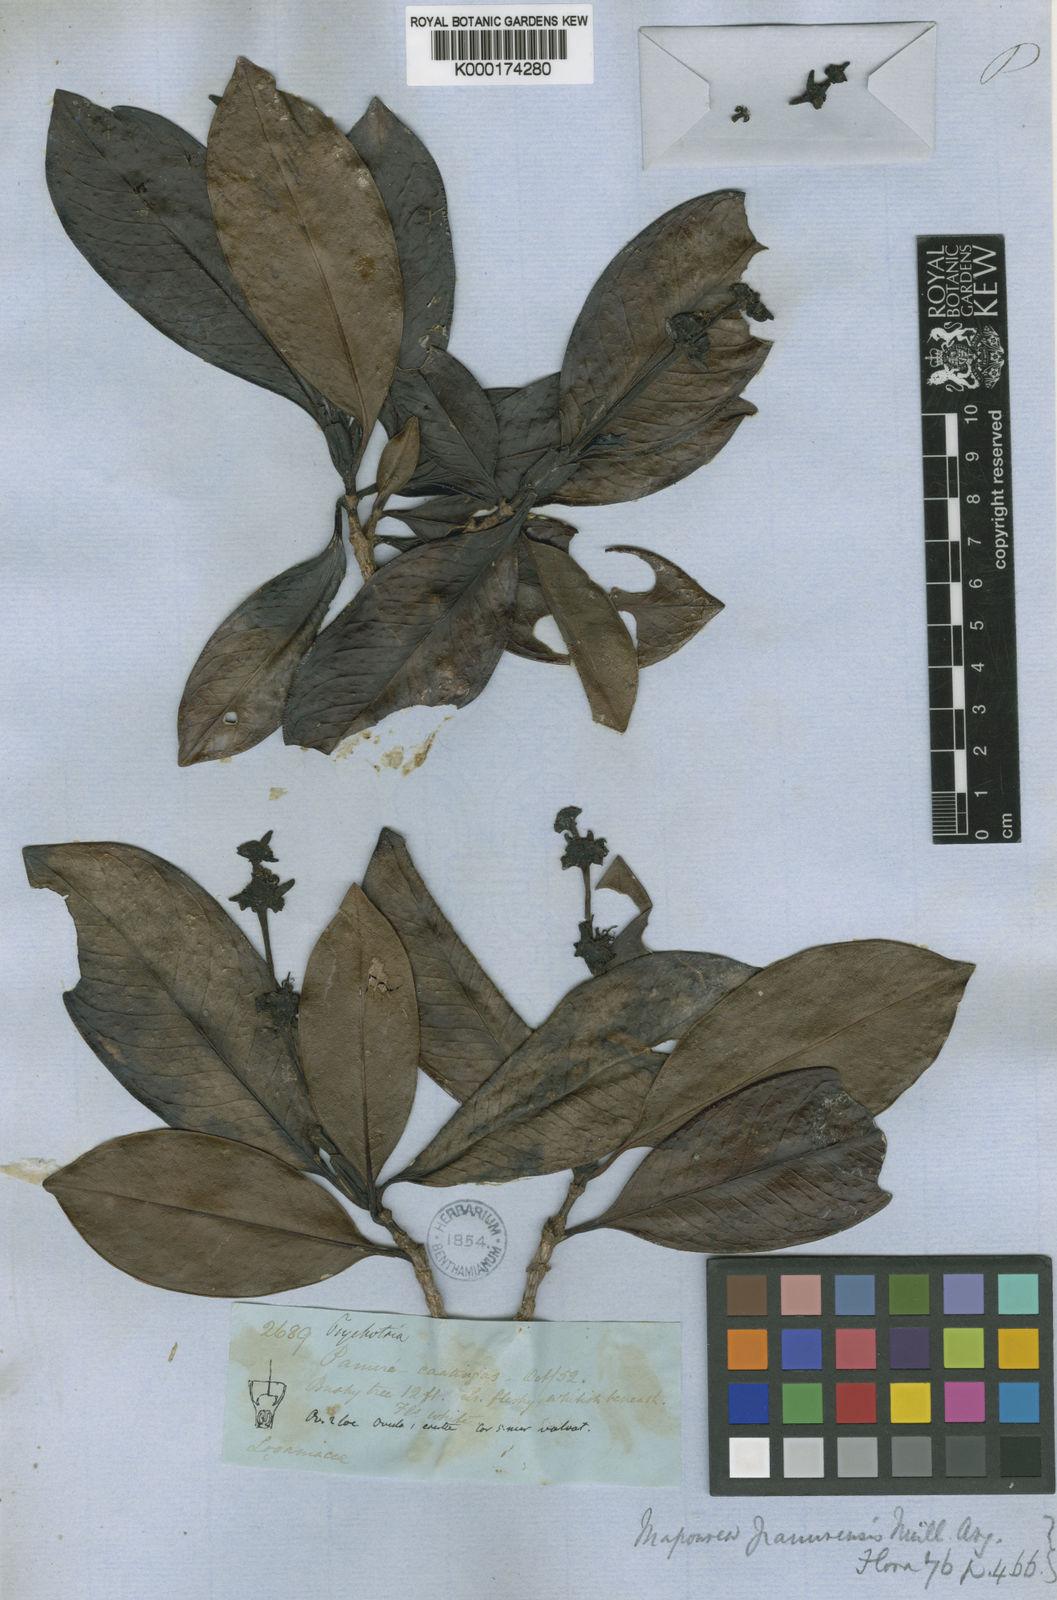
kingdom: Plantae
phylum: Tracheophyta
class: Magnoliopsida
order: Gentianales
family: Rubiaceae
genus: Carapichea
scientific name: Carapichea panurensis
